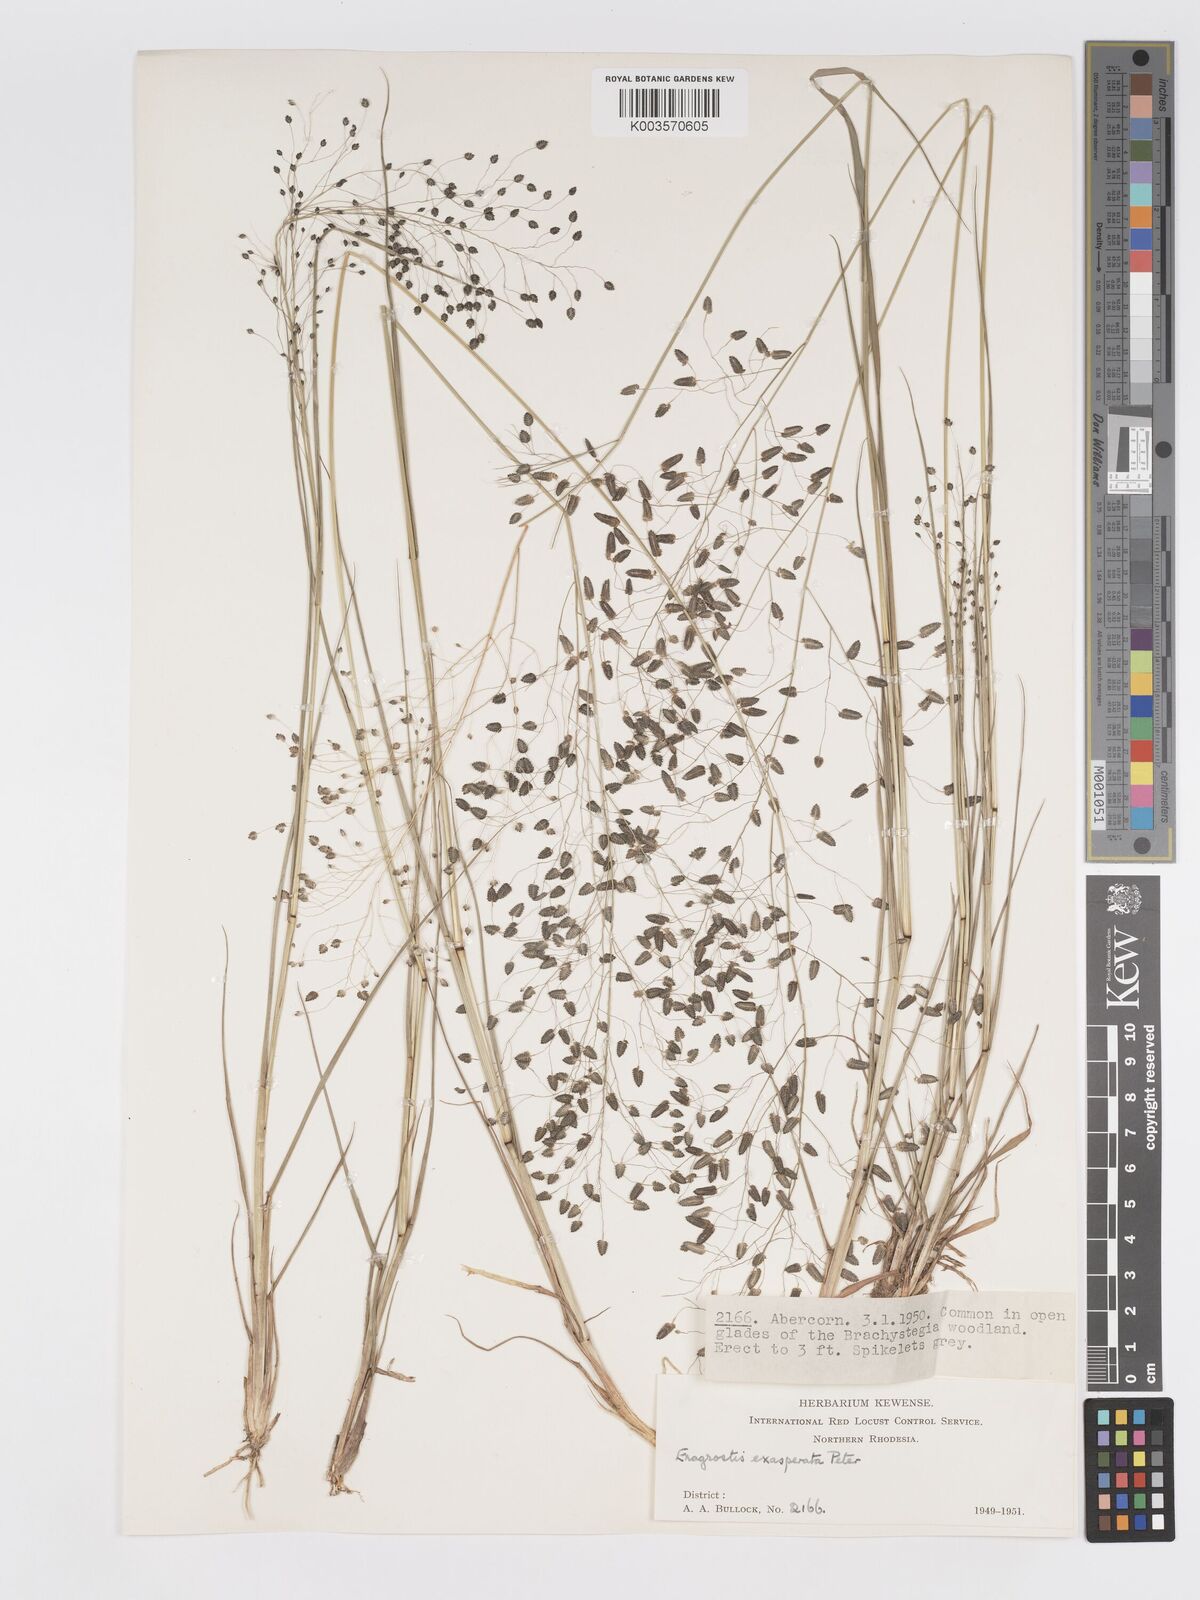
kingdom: Plantae
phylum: Tracheophyta
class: Liliopsida
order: Poales
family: Poaceae
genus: Eragrostis
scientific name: Eragrostis exasperata
